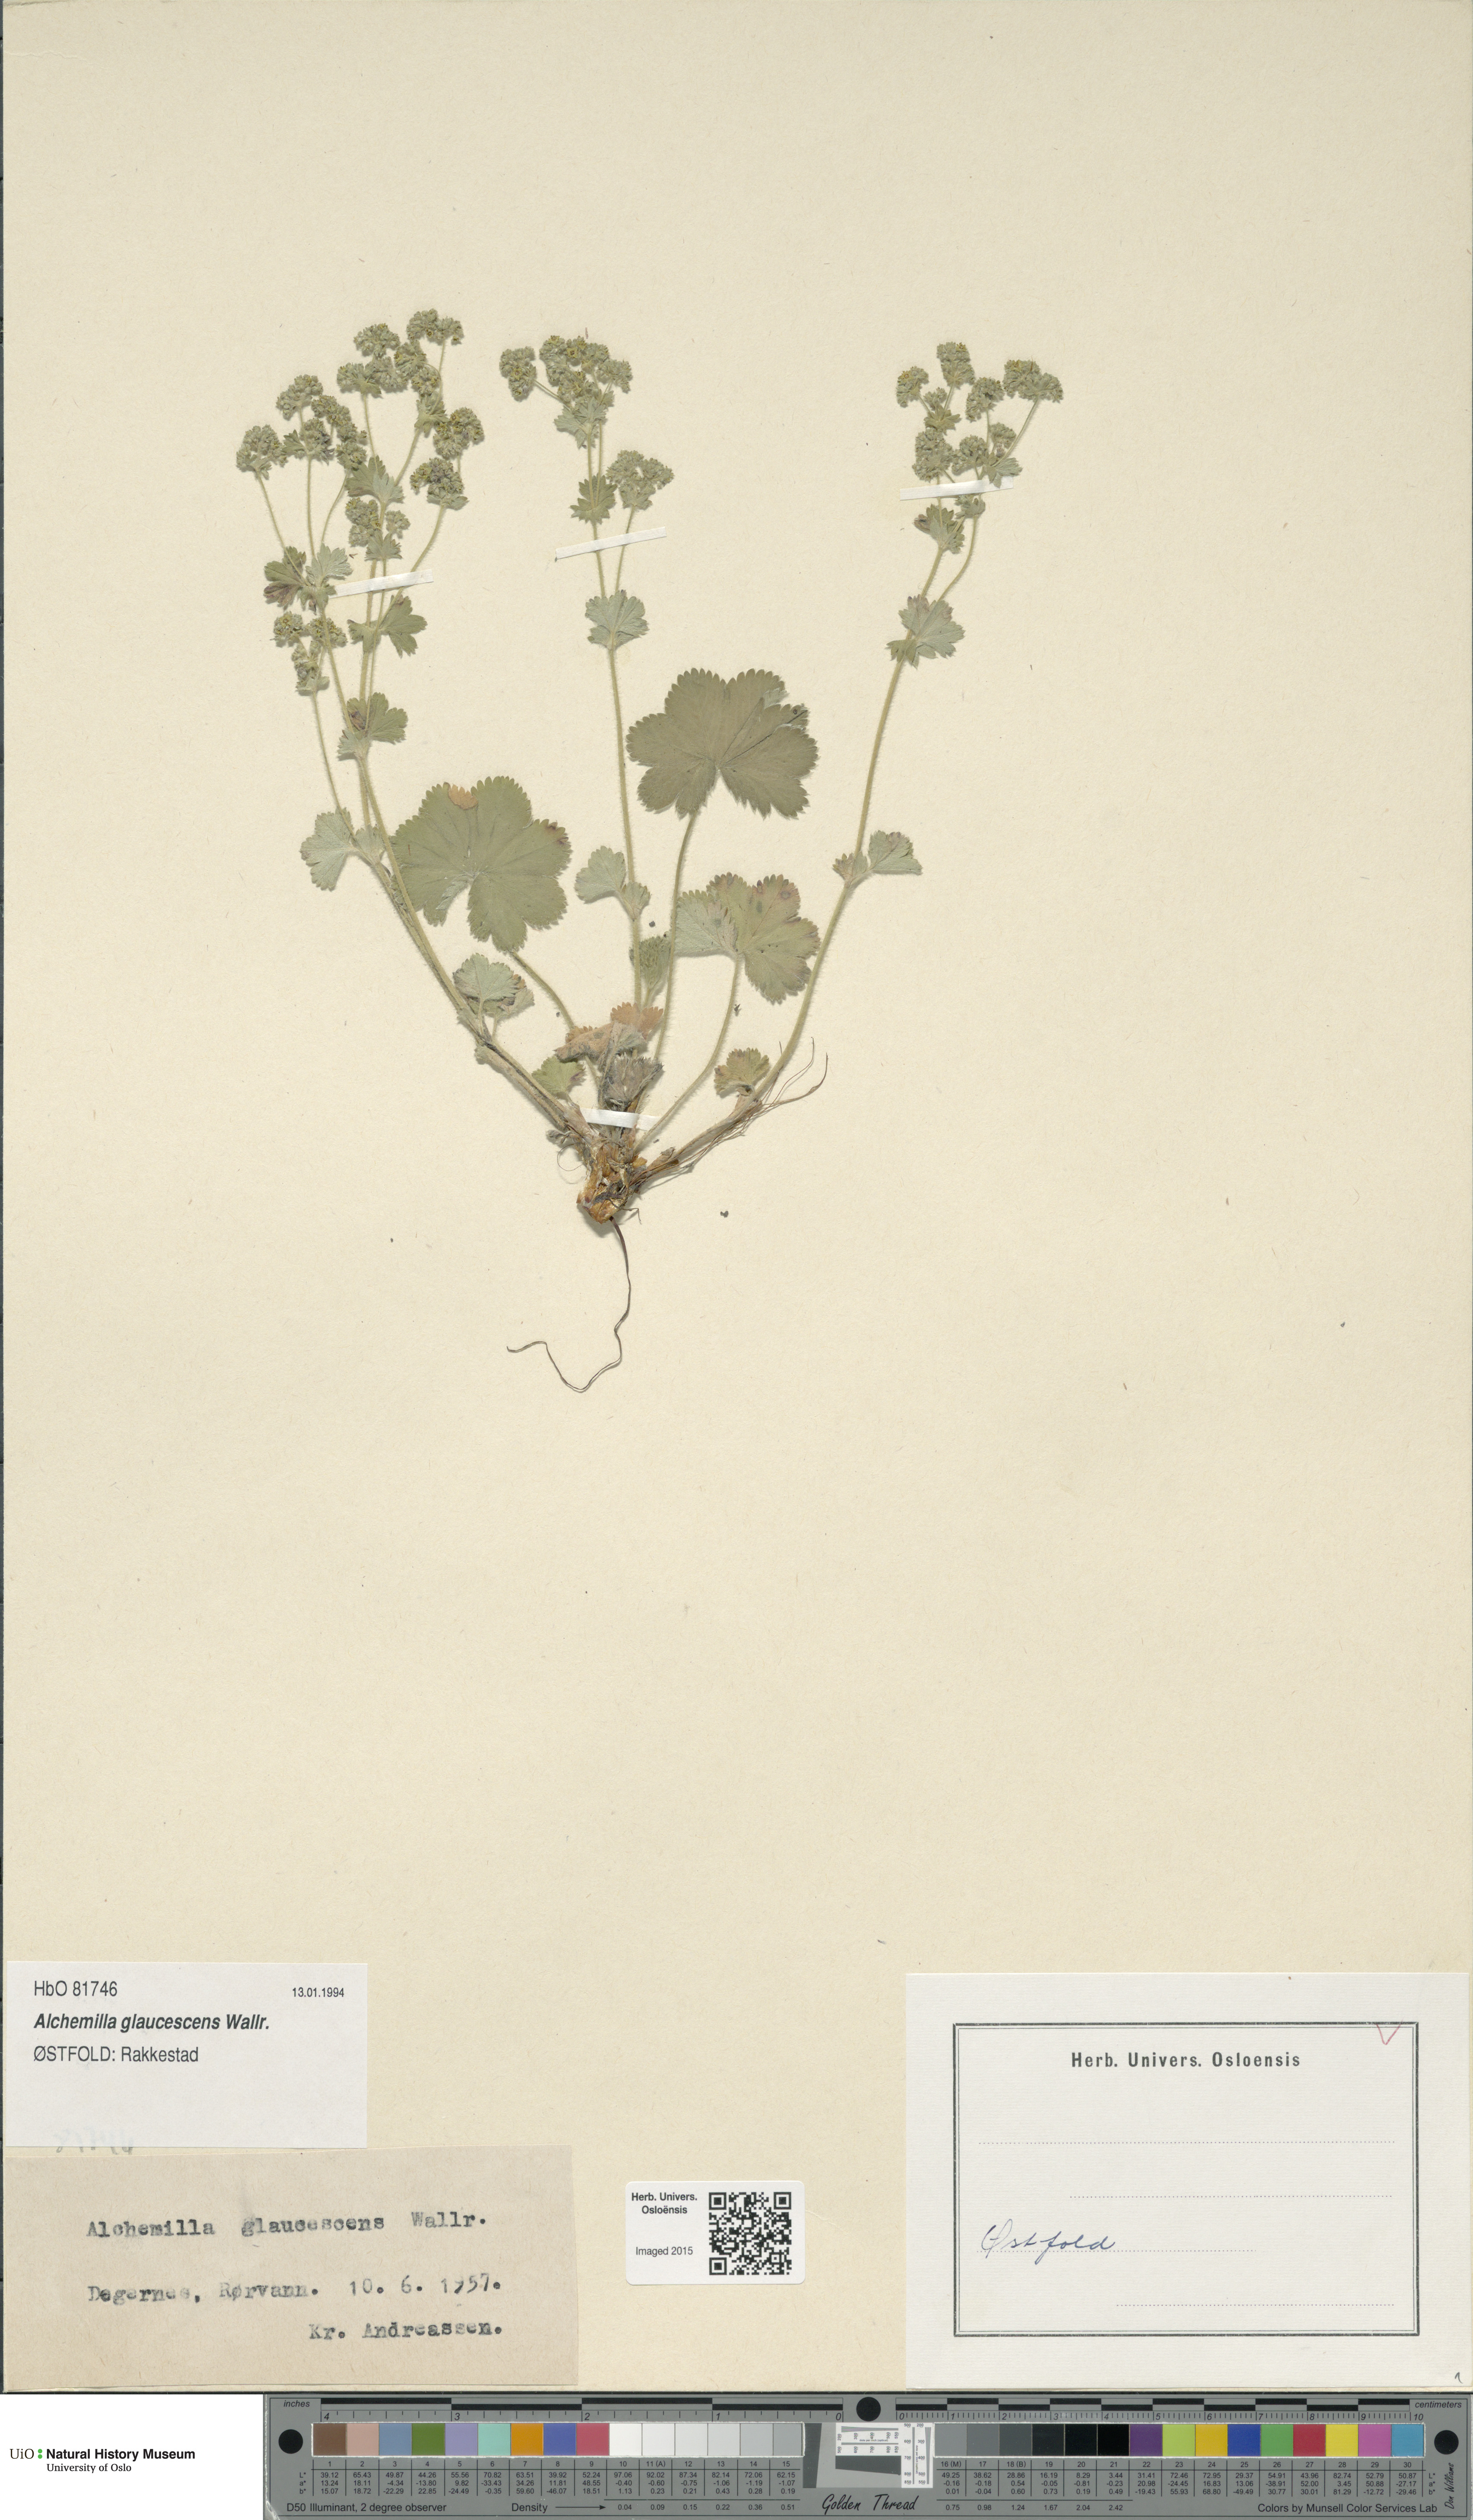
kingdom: Plantae
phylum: Tracheophyta
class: Magnoliopsida
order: Rosales
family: Rosaceae
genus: Alchemilla
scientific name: Alchemilla glaucescens
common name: Silky lady's mantle
